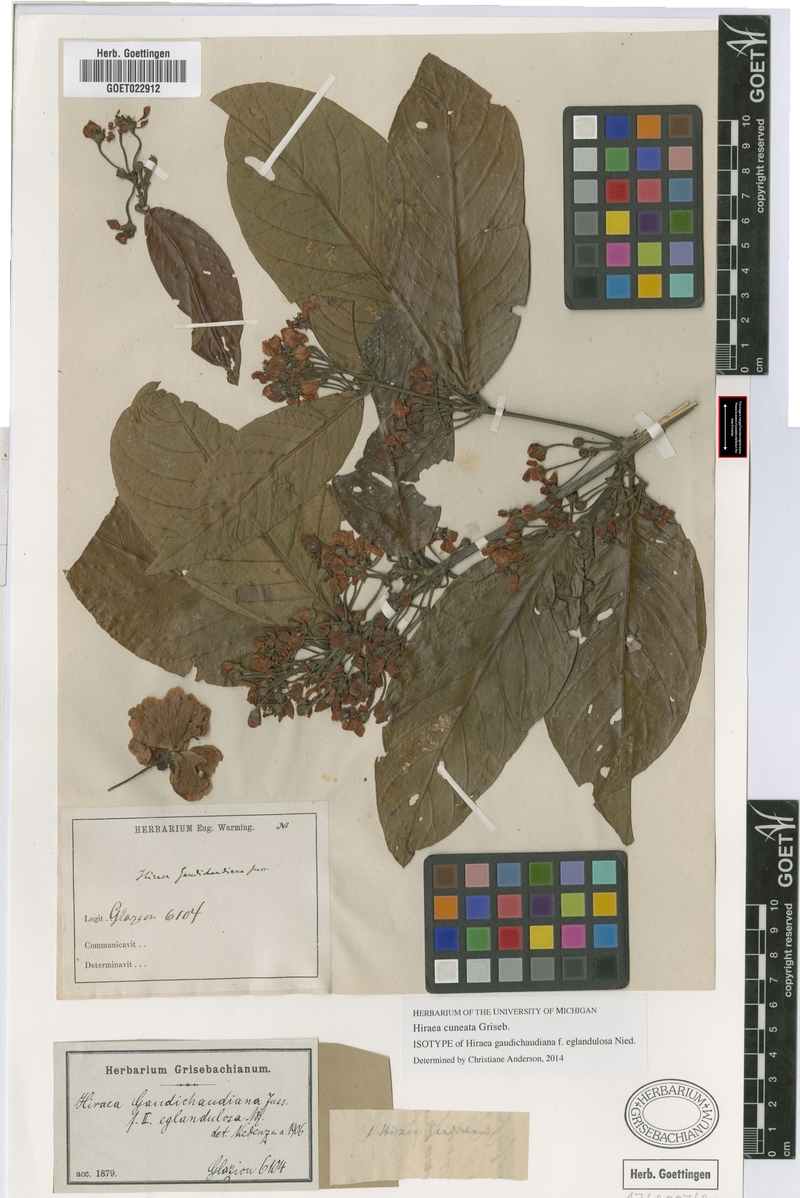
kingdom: Plantae
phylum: Tracheophyta
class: Magnoliopsida
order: Malpighiales
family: Malpighiaceae
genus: Hiraea
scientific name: Hiraea cuneata
